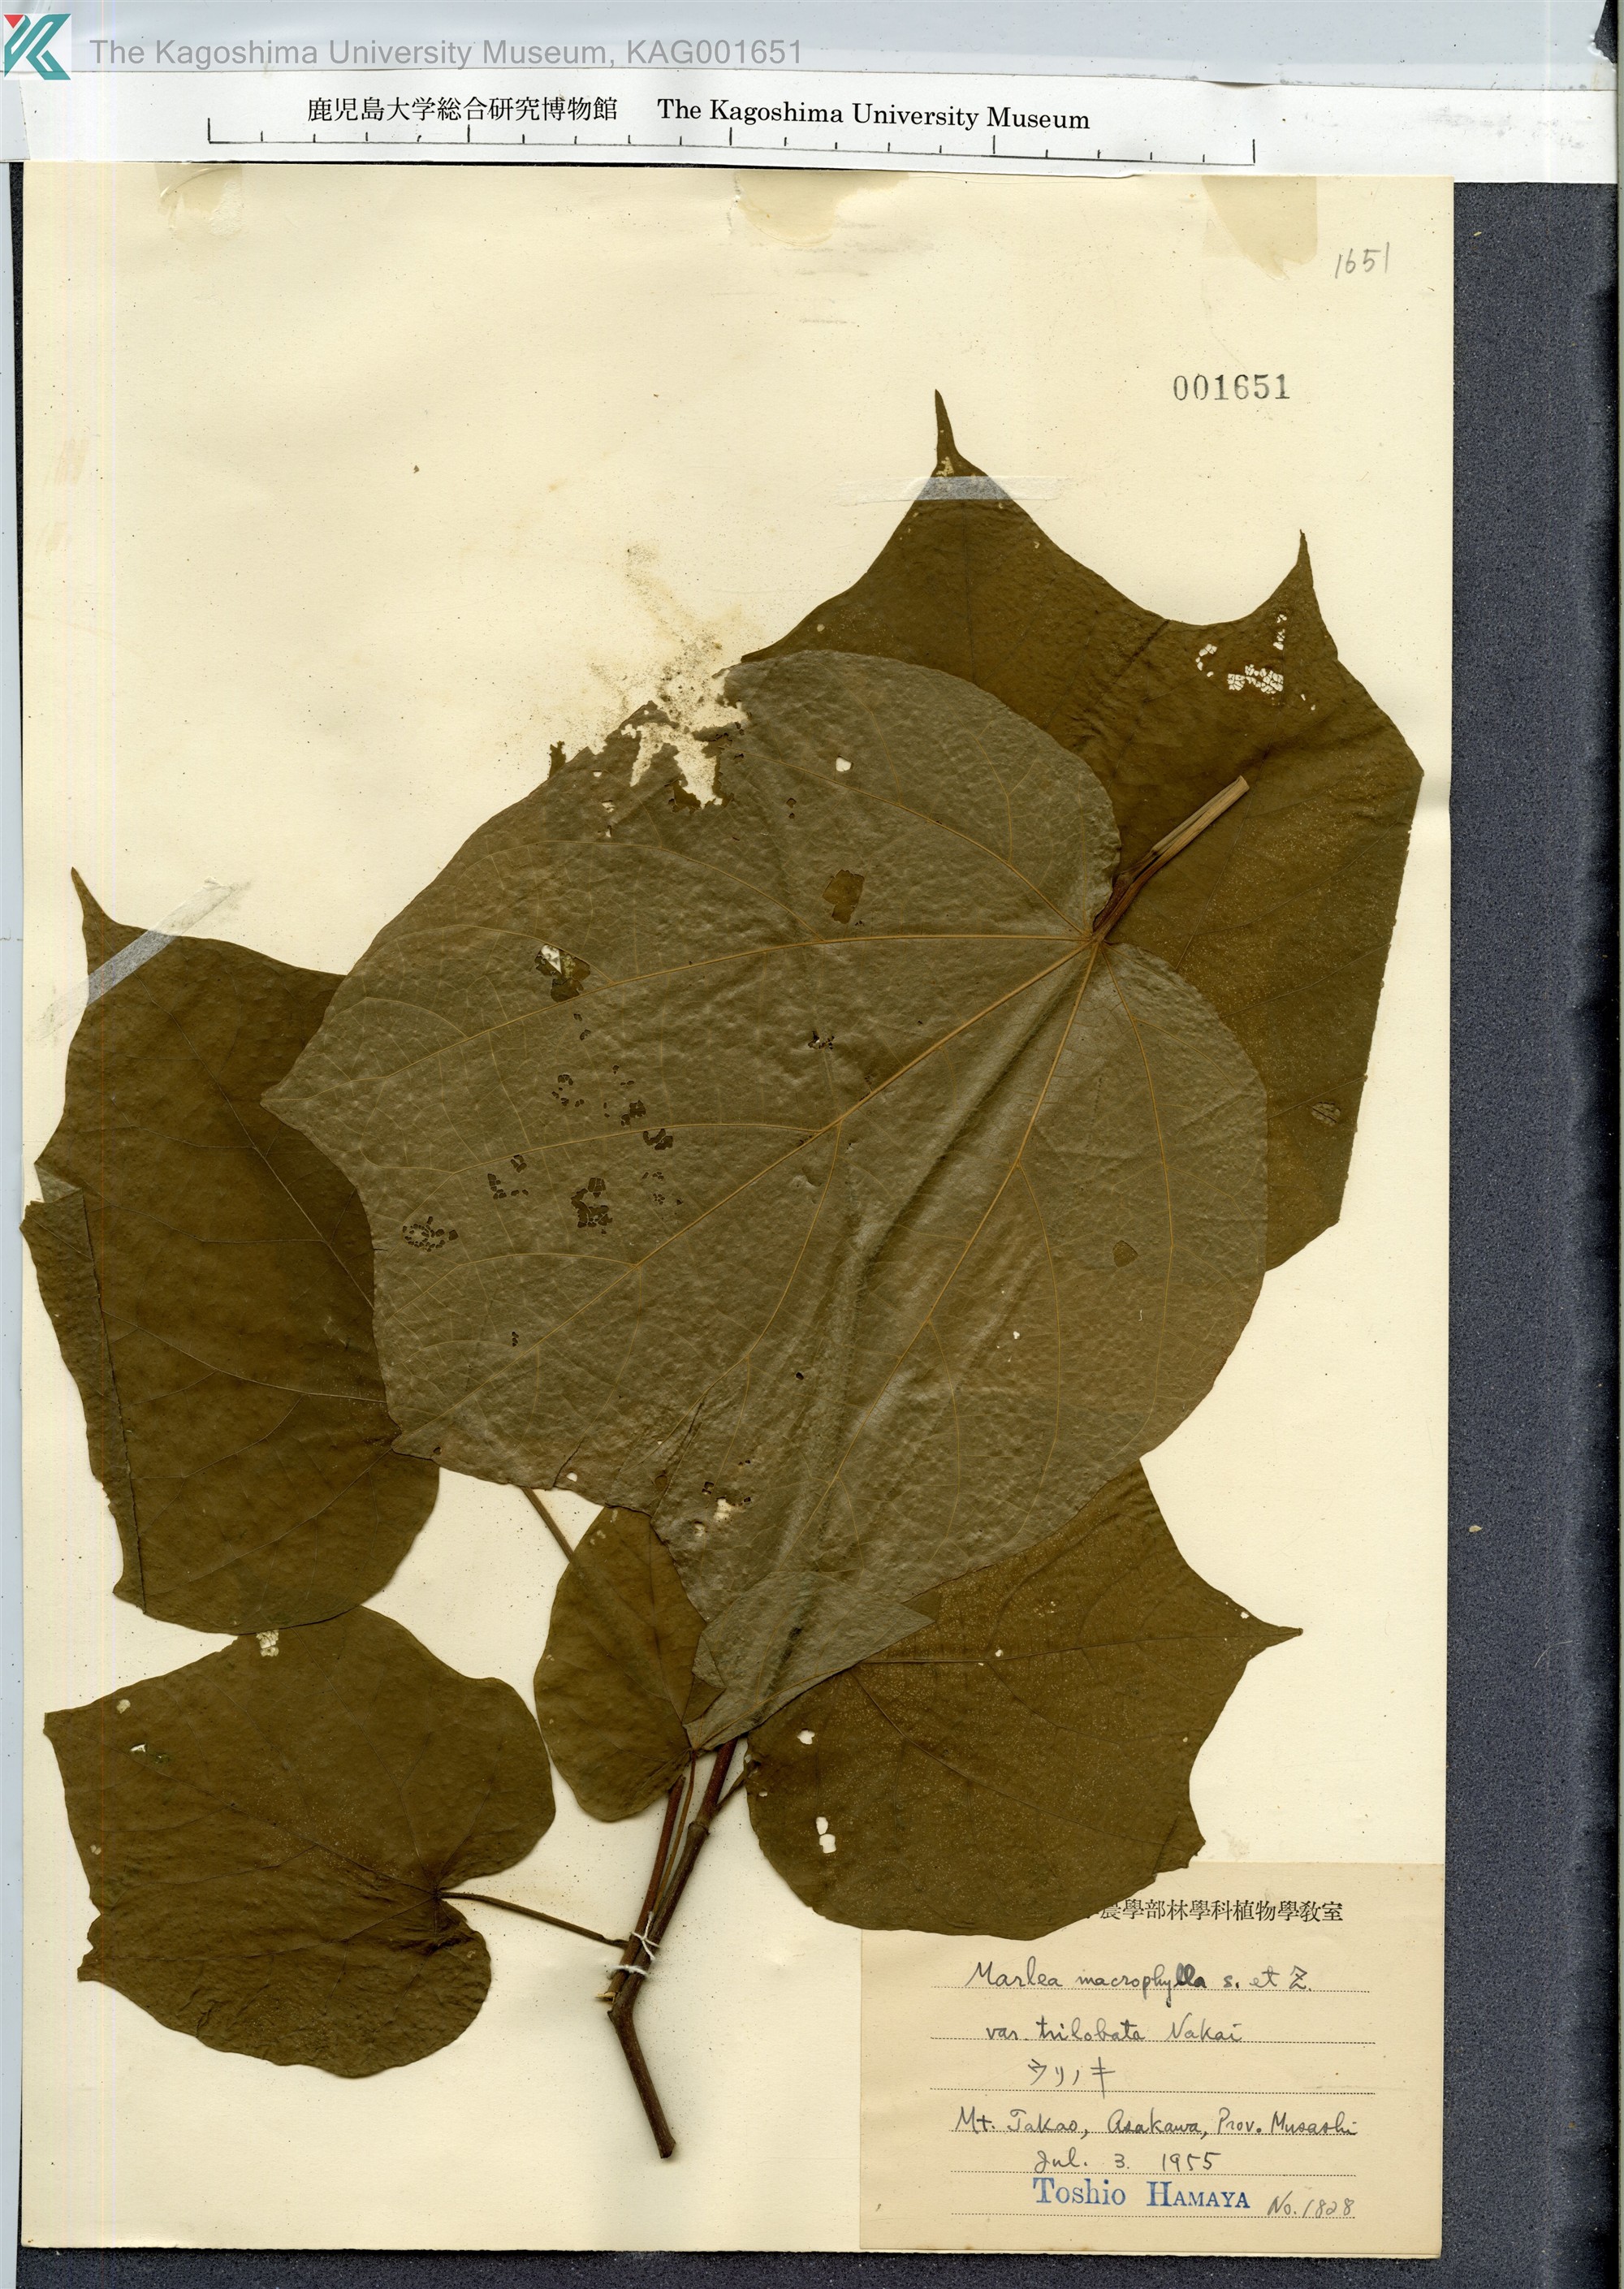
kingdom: Plantae
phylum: Tracheophyta
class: Magnoliopsida
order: Cornales
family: Cornaceae
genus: Alangium
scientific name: Alangium platanifolium
